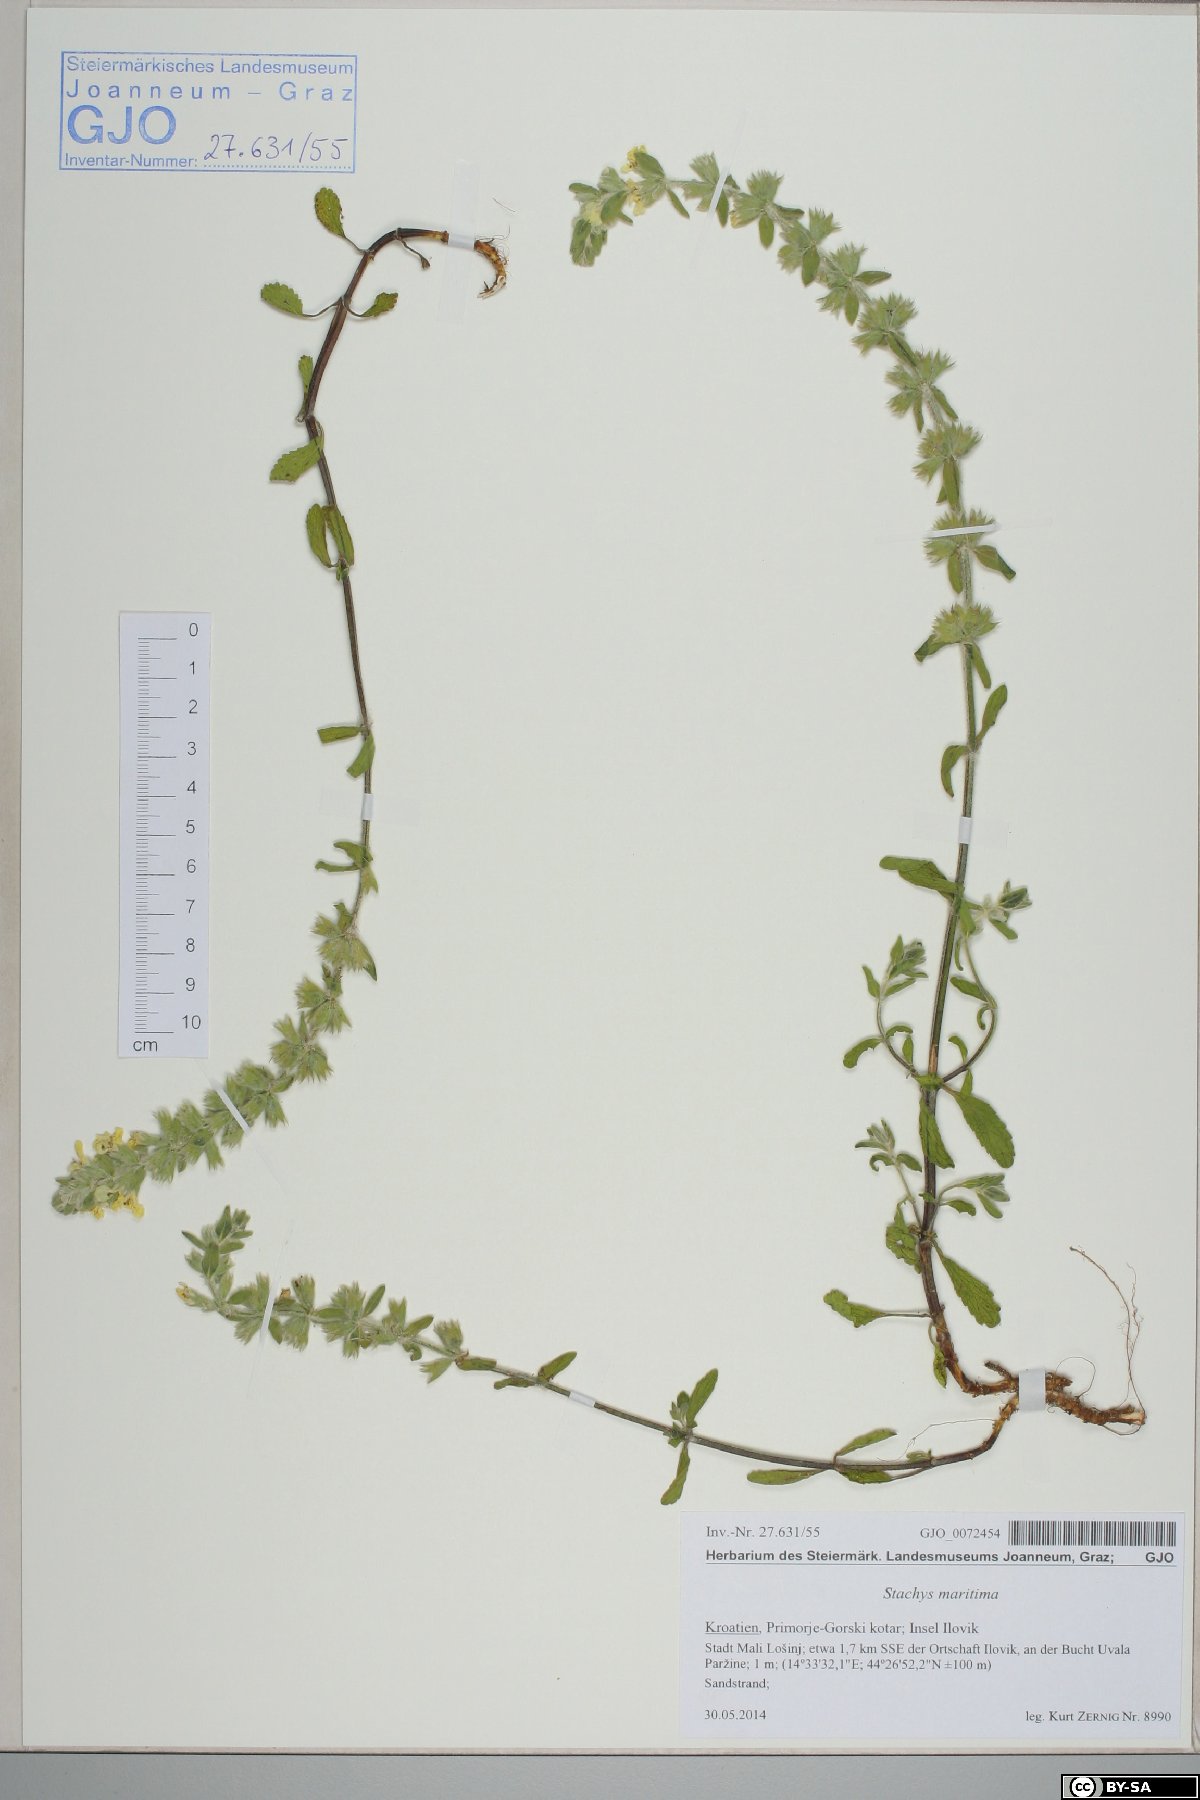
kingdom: Plantae
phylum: Tracheophyta
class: Magnoliopsida
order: Lamiales
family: Lamiaceae
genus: Stachys
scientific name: Stachys maritima
